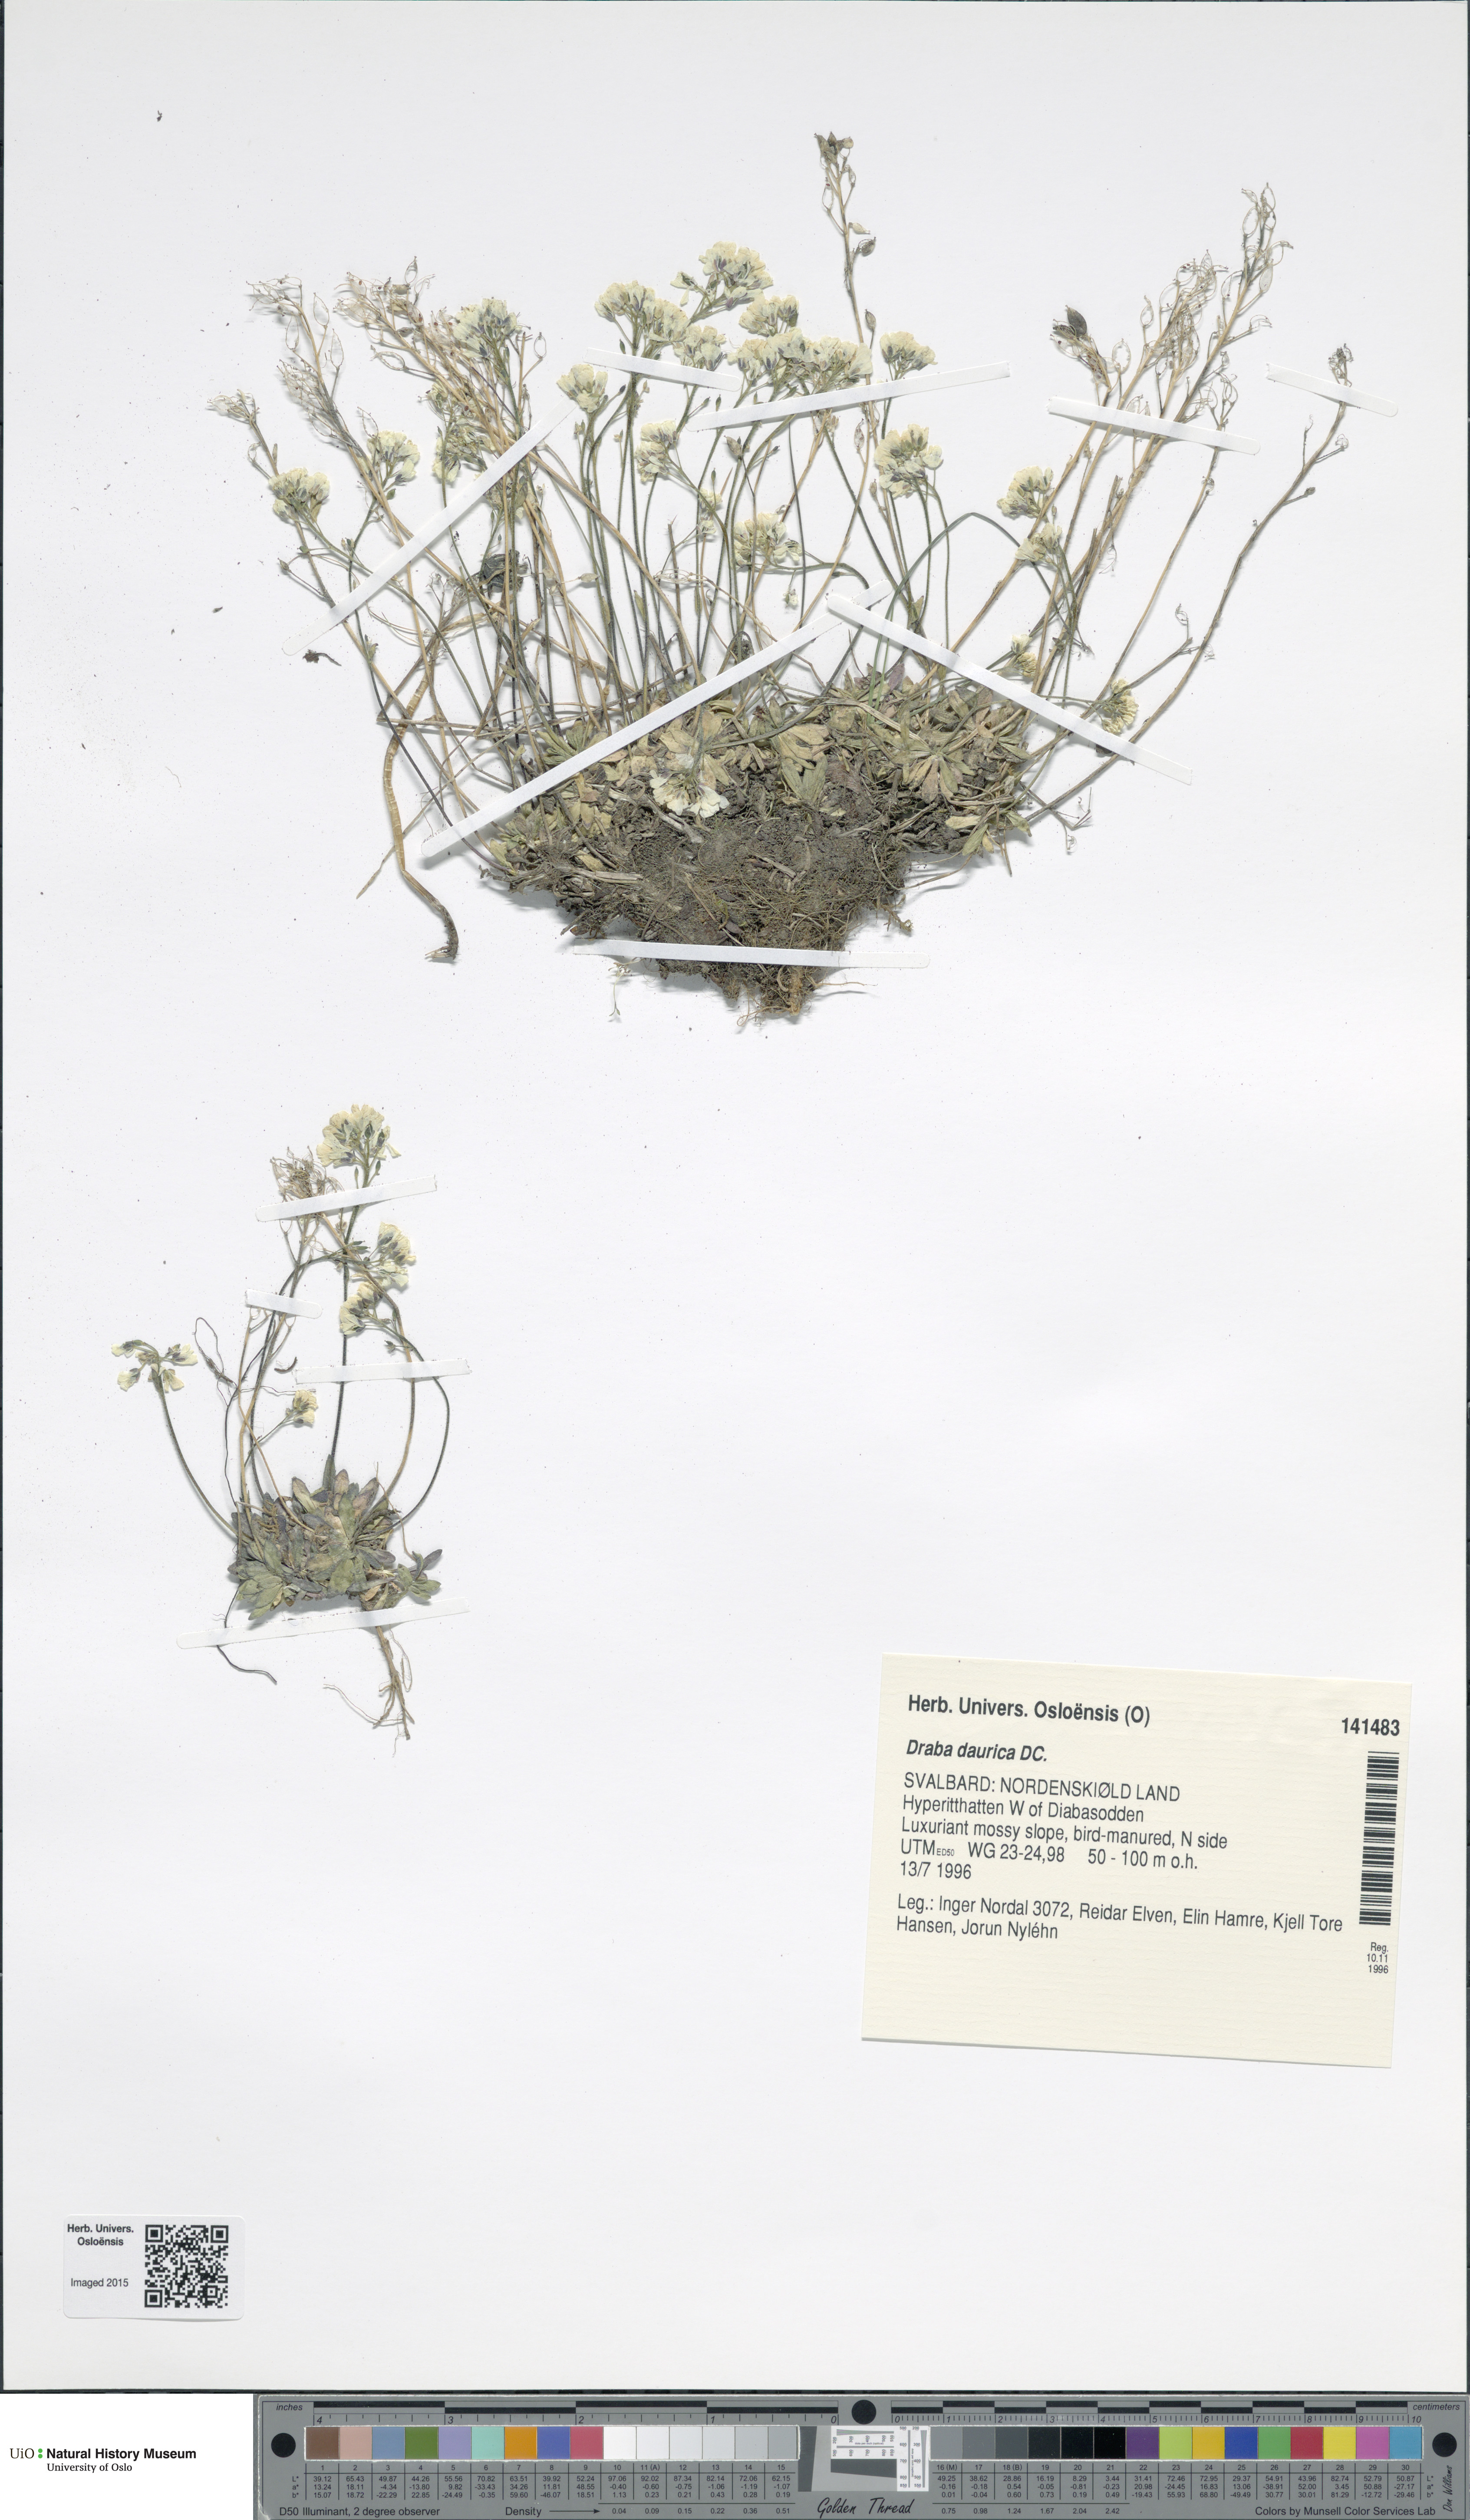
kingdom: Plantae
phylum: Tracheophyta
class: Magnoliopsida
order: Brassicales
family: Brassicaceae
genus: Draba
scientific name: Draba glabella
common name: Glaucous draba
